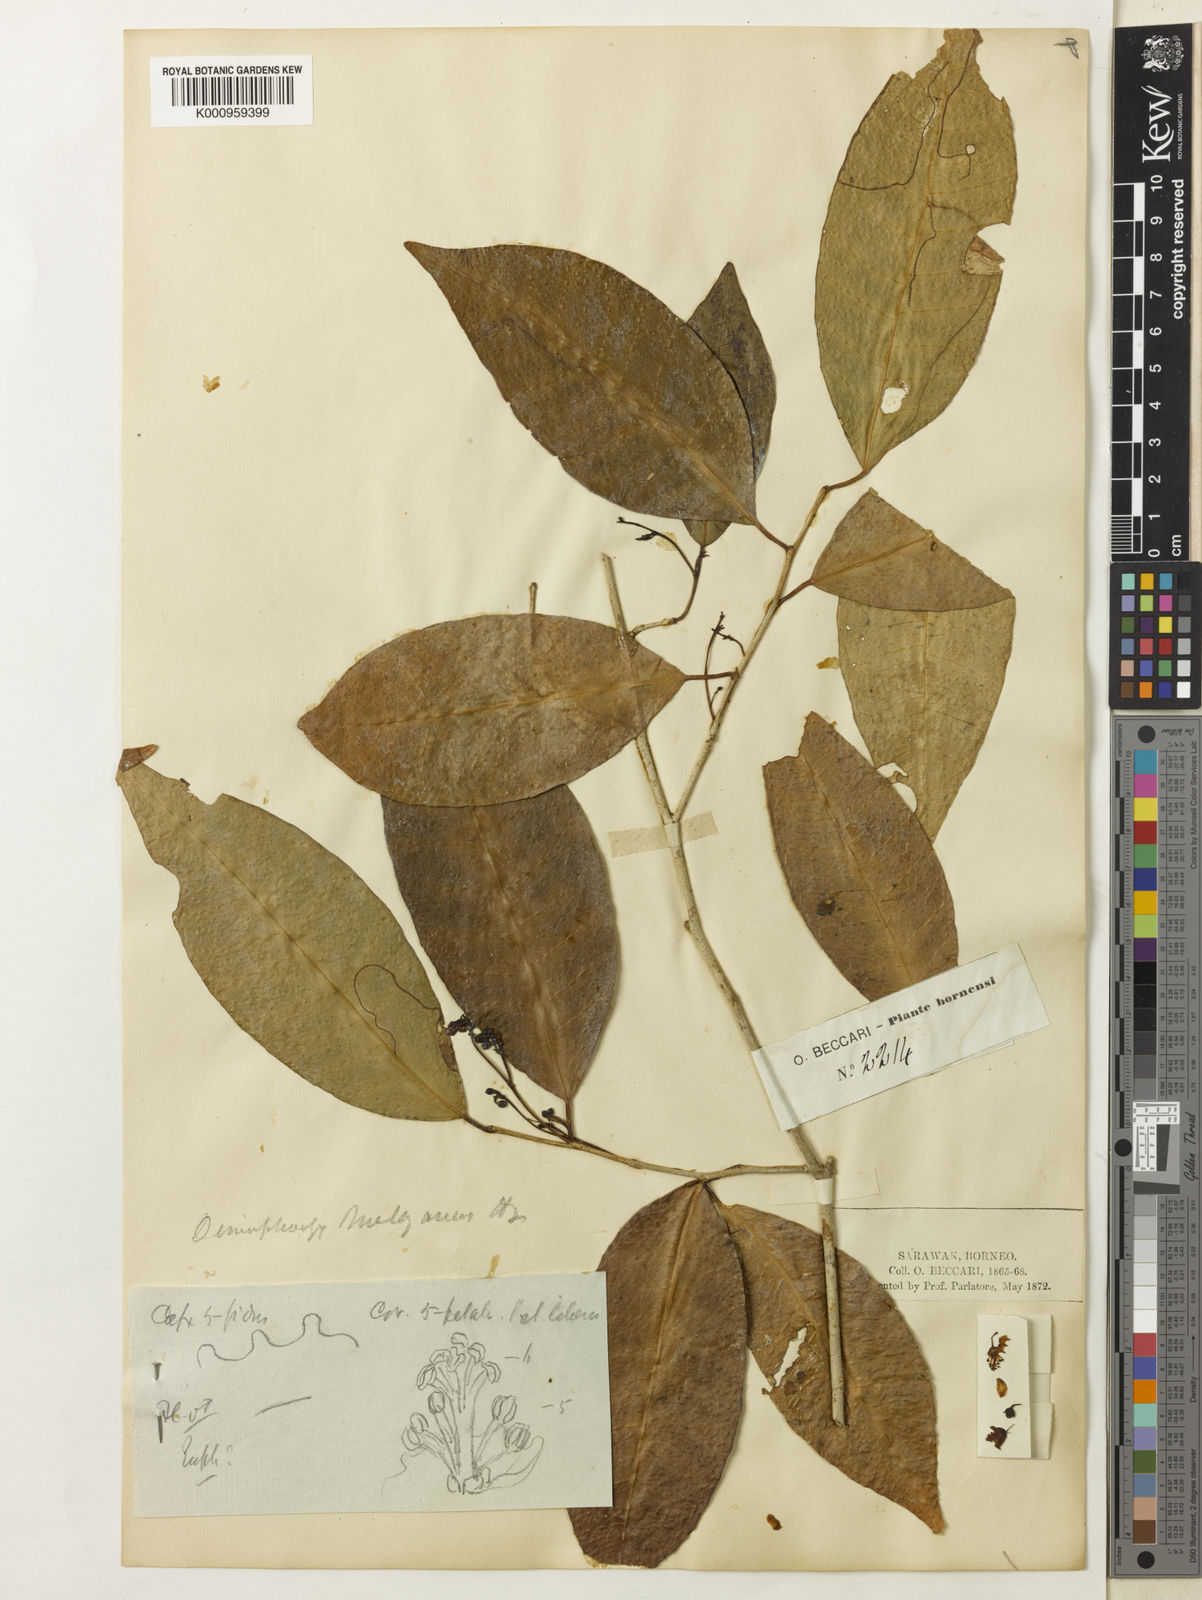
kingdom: Plantae
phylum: Tracheophyta
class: Magnoliopsida
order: Malpighiales
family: Euphorbiaceae
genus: Tritaxis
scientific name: Tritaxis malayana
